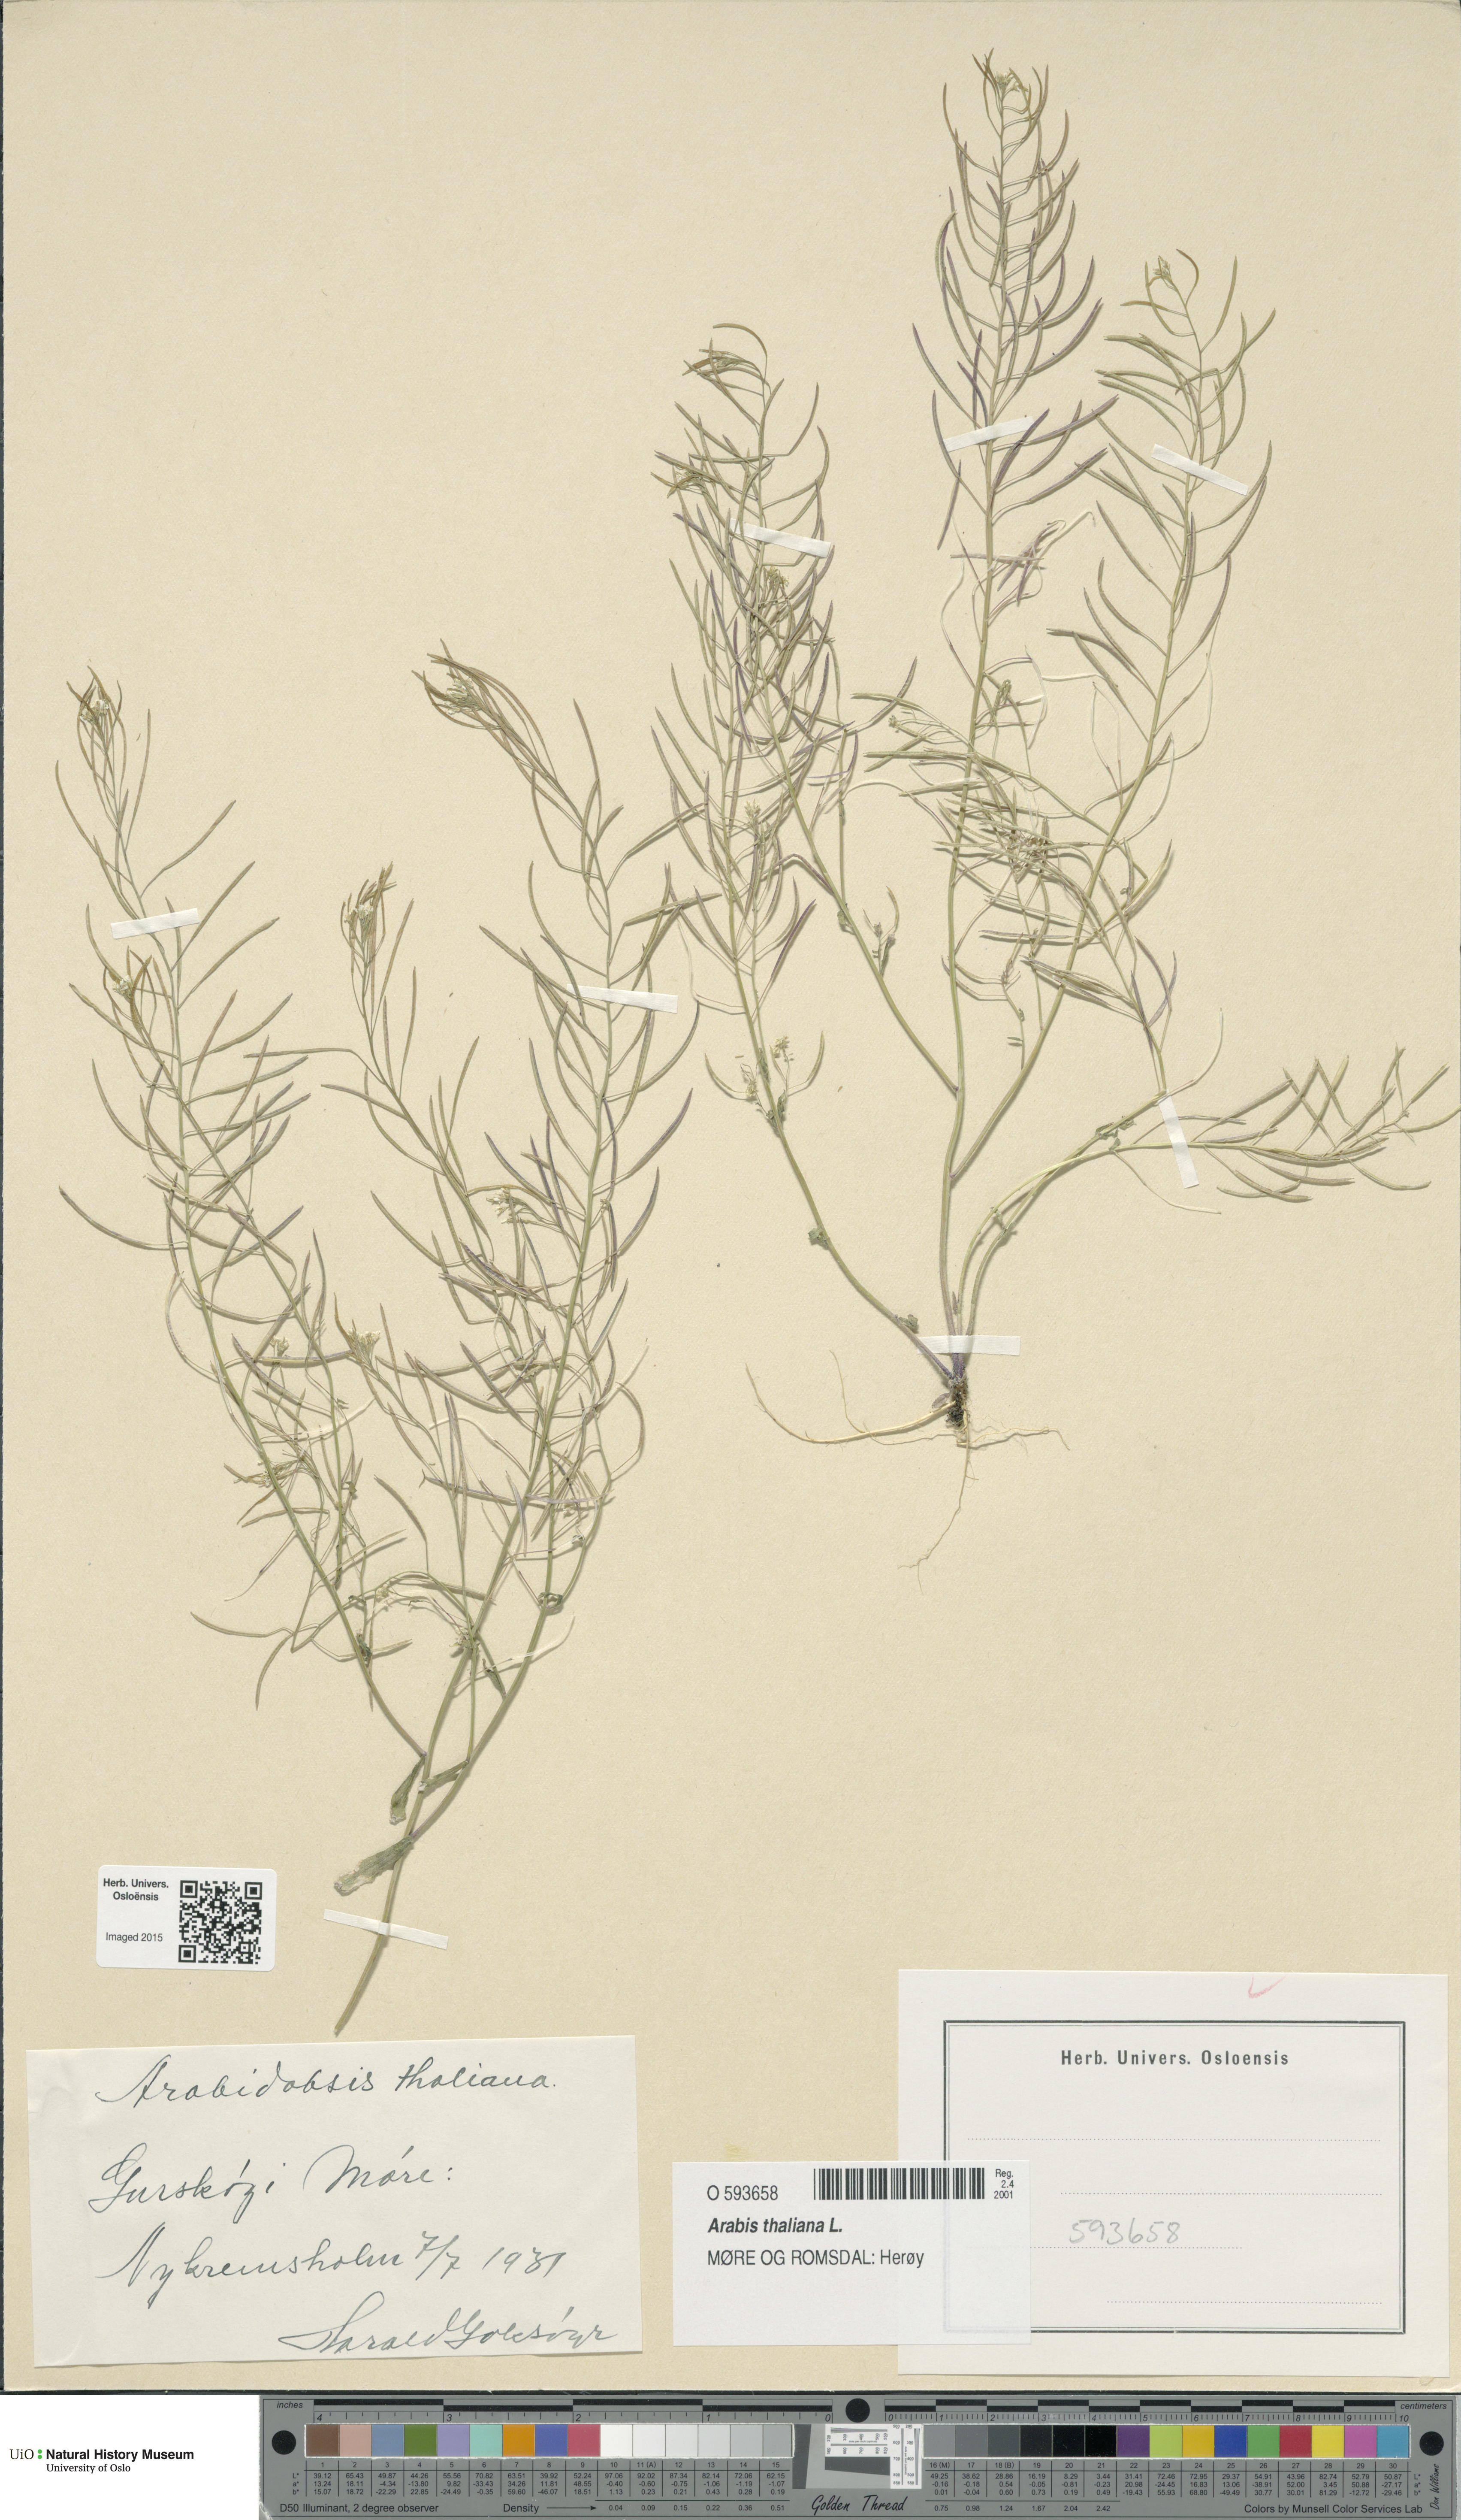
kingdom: Plantae
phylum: Tracheophyta
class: Magnoliopsida
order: Brassicales
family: Brassicaceae
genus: Arabidopsis
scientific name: Arabidopsis thaliana
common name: Thale cress
